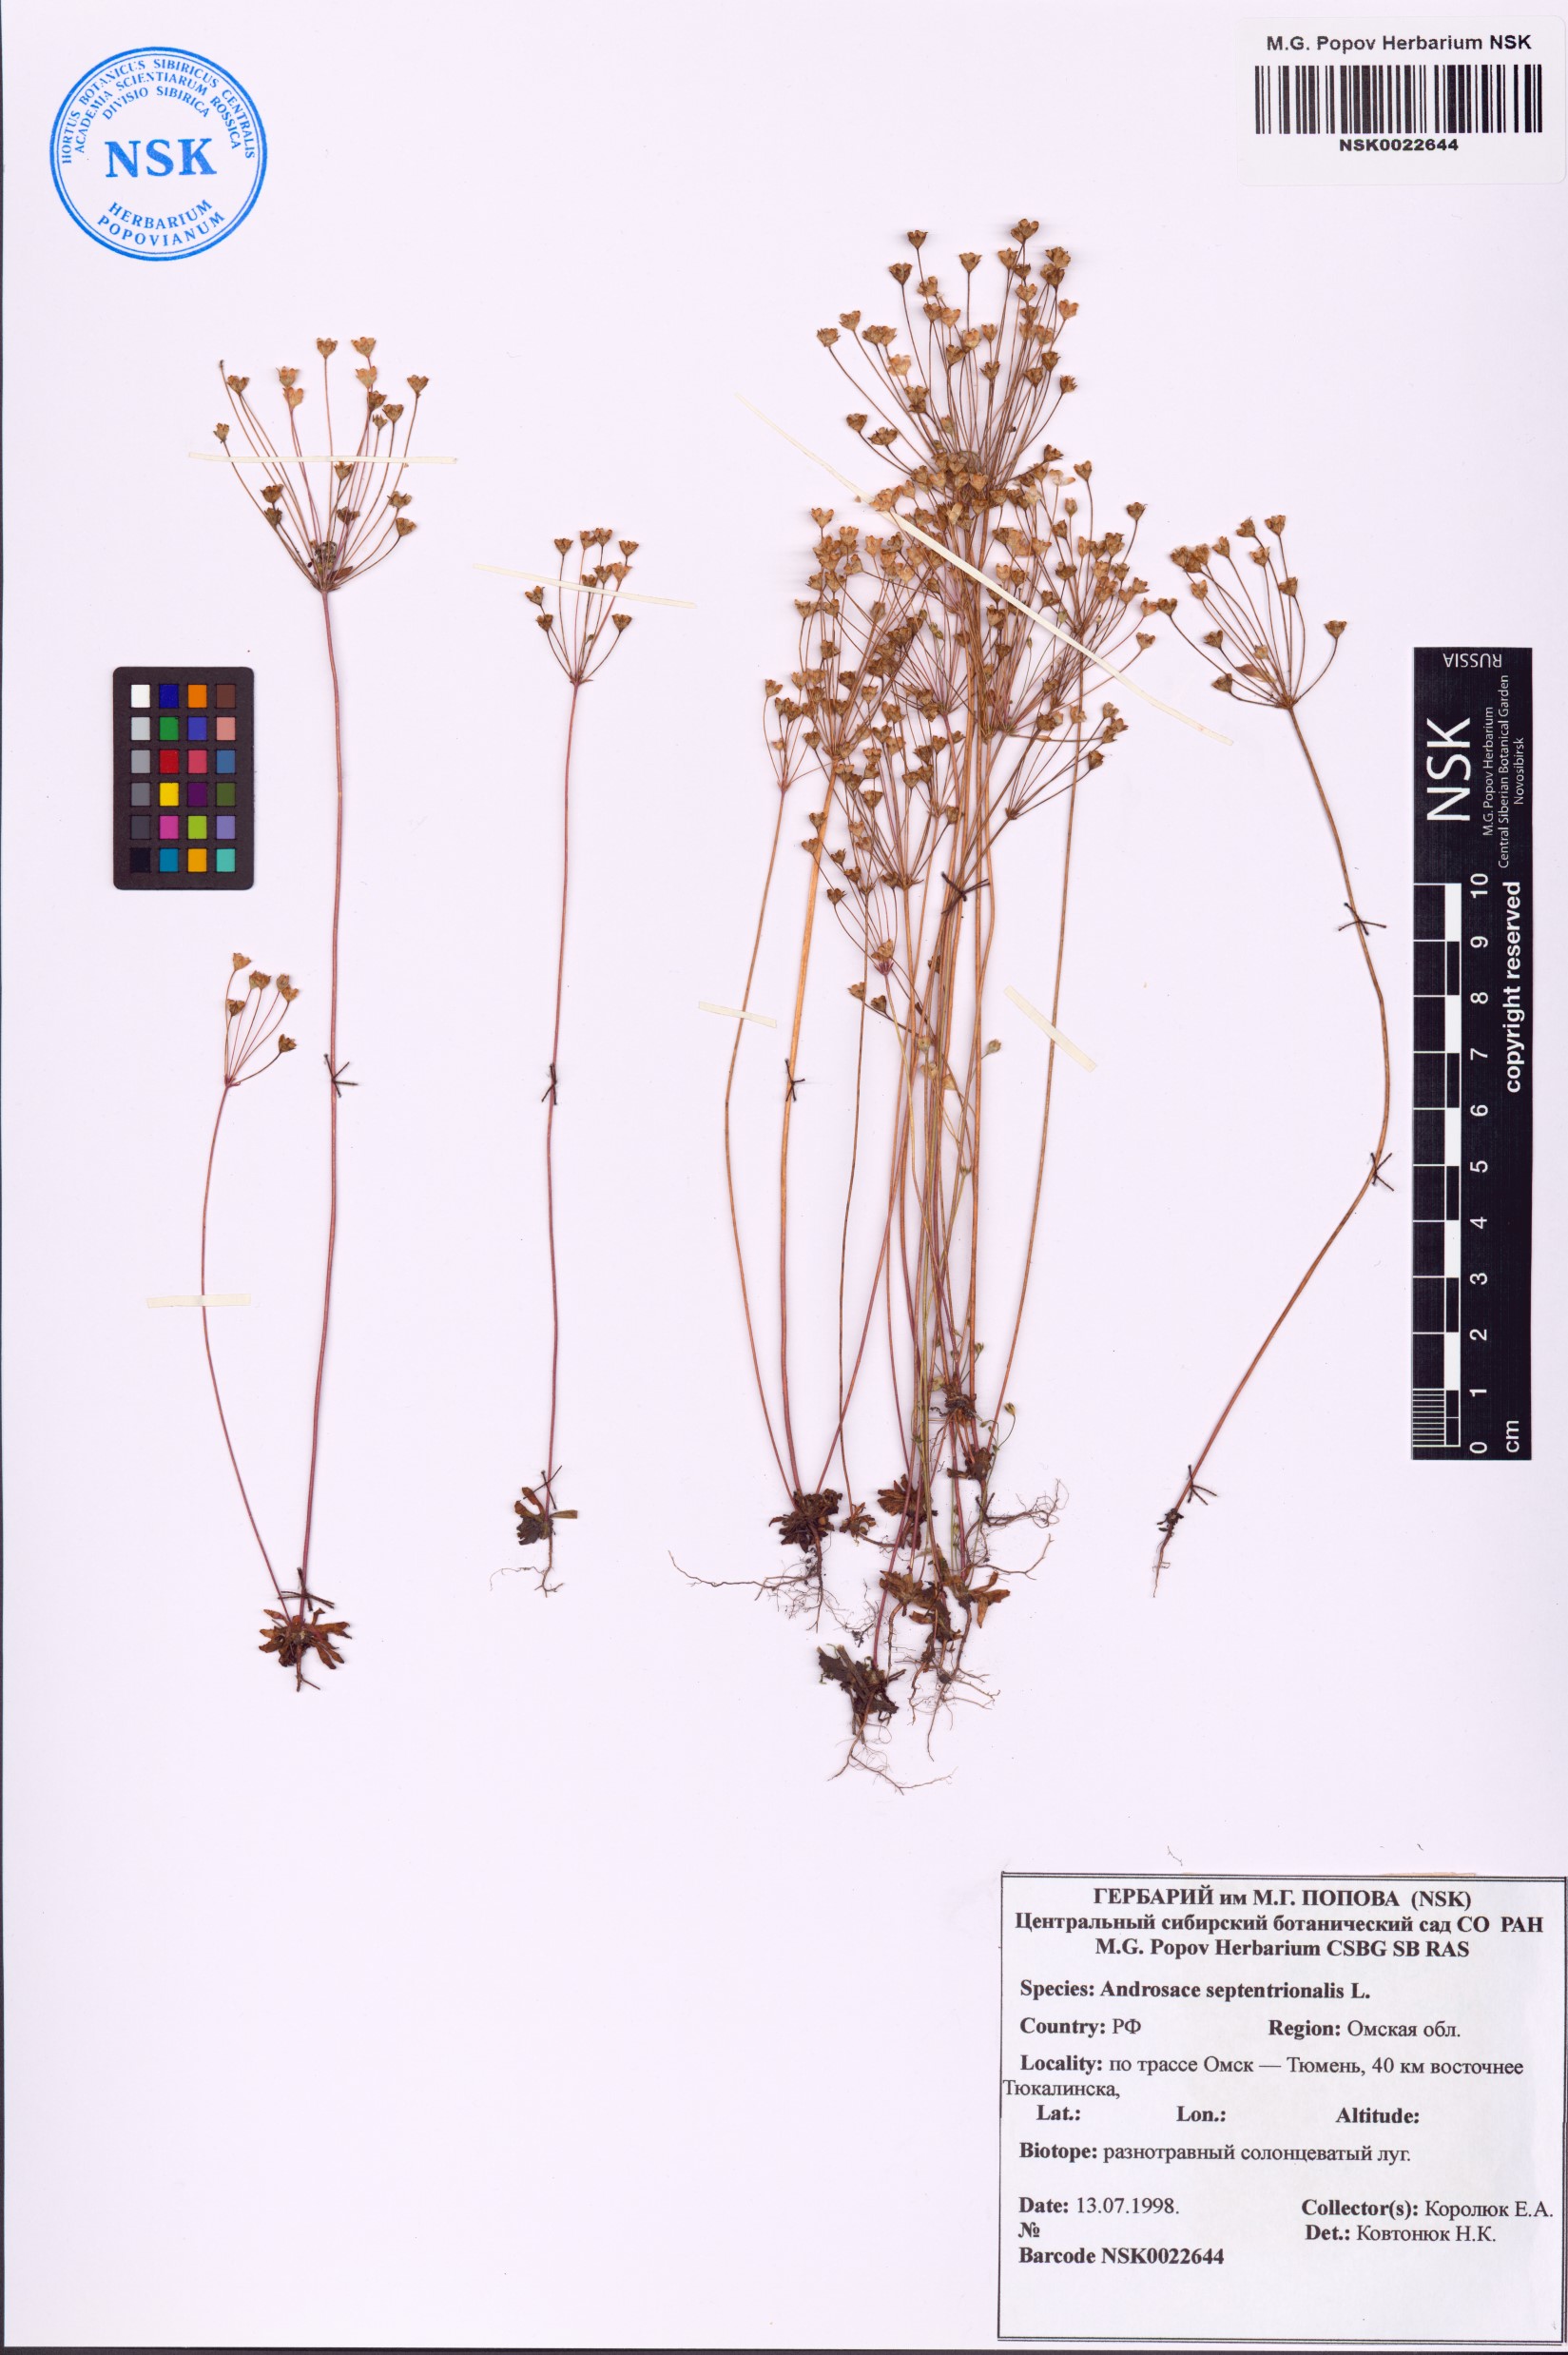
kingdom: Plantae
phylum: Tracheophyta
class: Magnoliopsida
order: Ericales
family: Primulaceae
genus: Androsace
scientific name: Androsace septentrionalis
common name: Hairy northern fairy-candelabra
